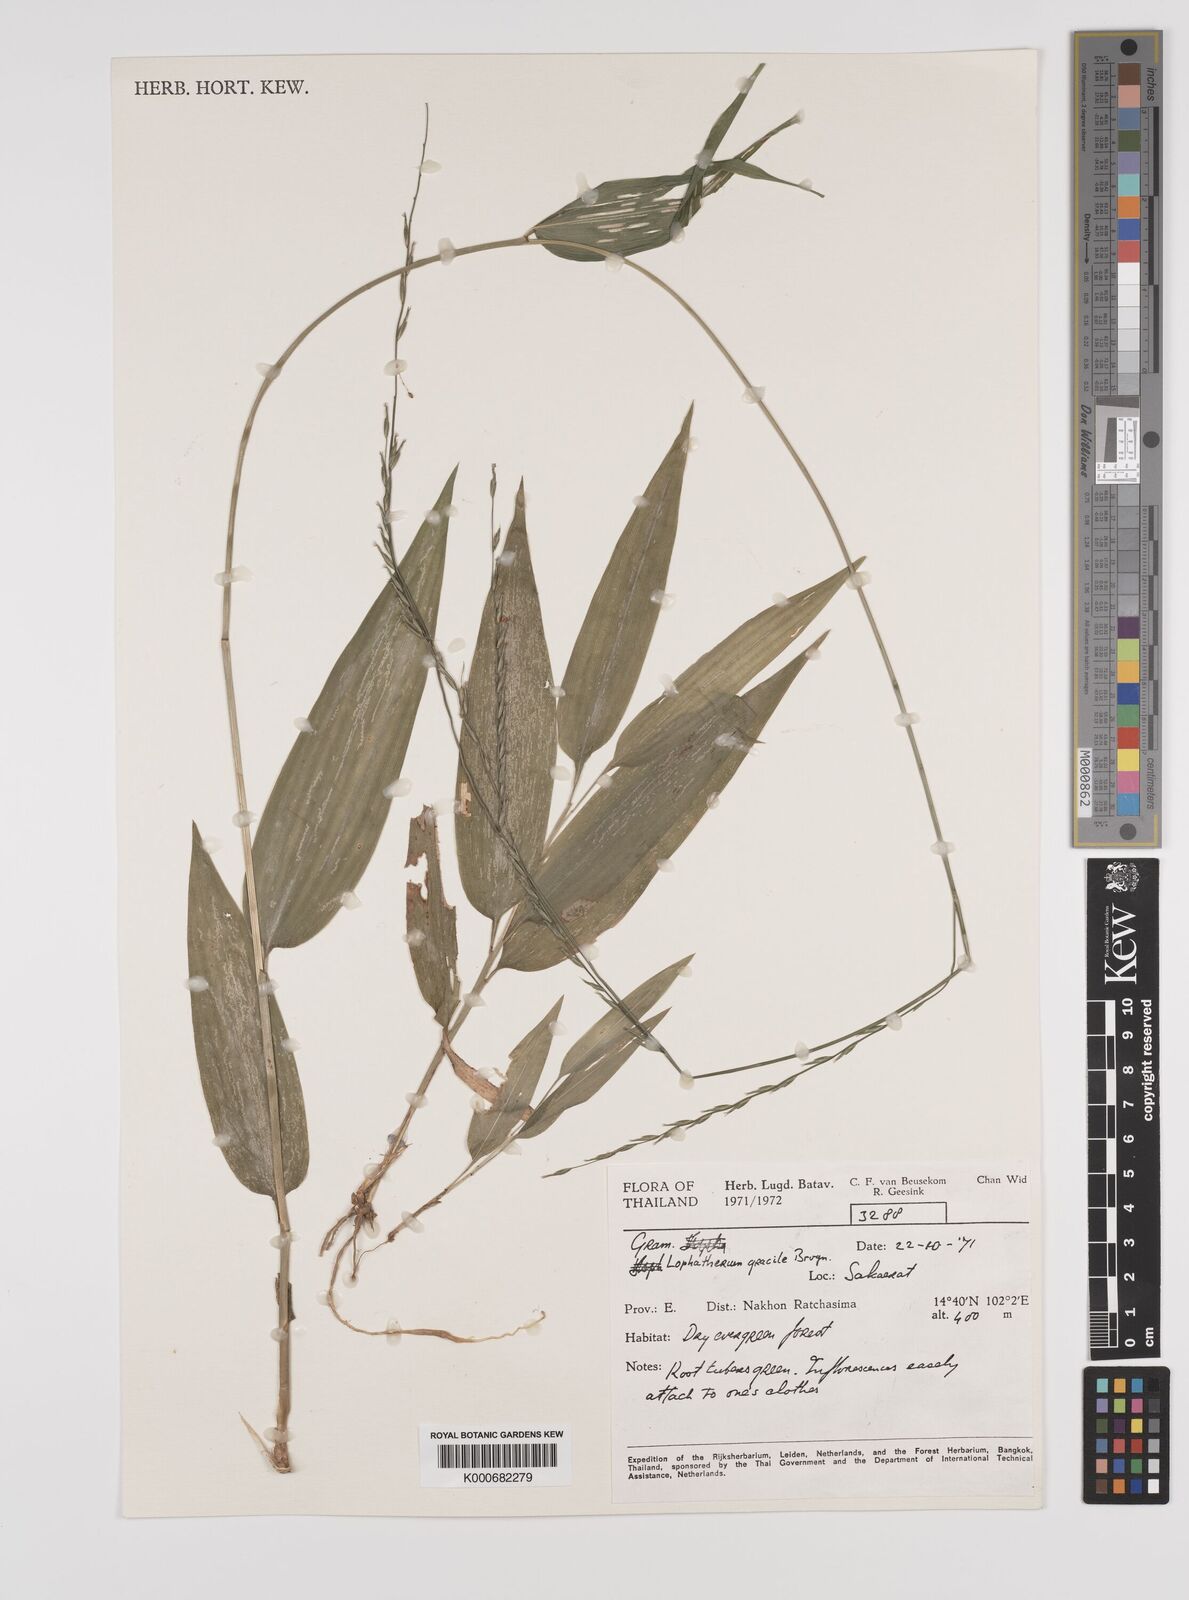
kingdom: Plantae
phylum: Tracheophyta
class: Liliopsida
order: Poales
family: Poaceae
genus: Lophatherum
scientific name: Lophatherum gracile
